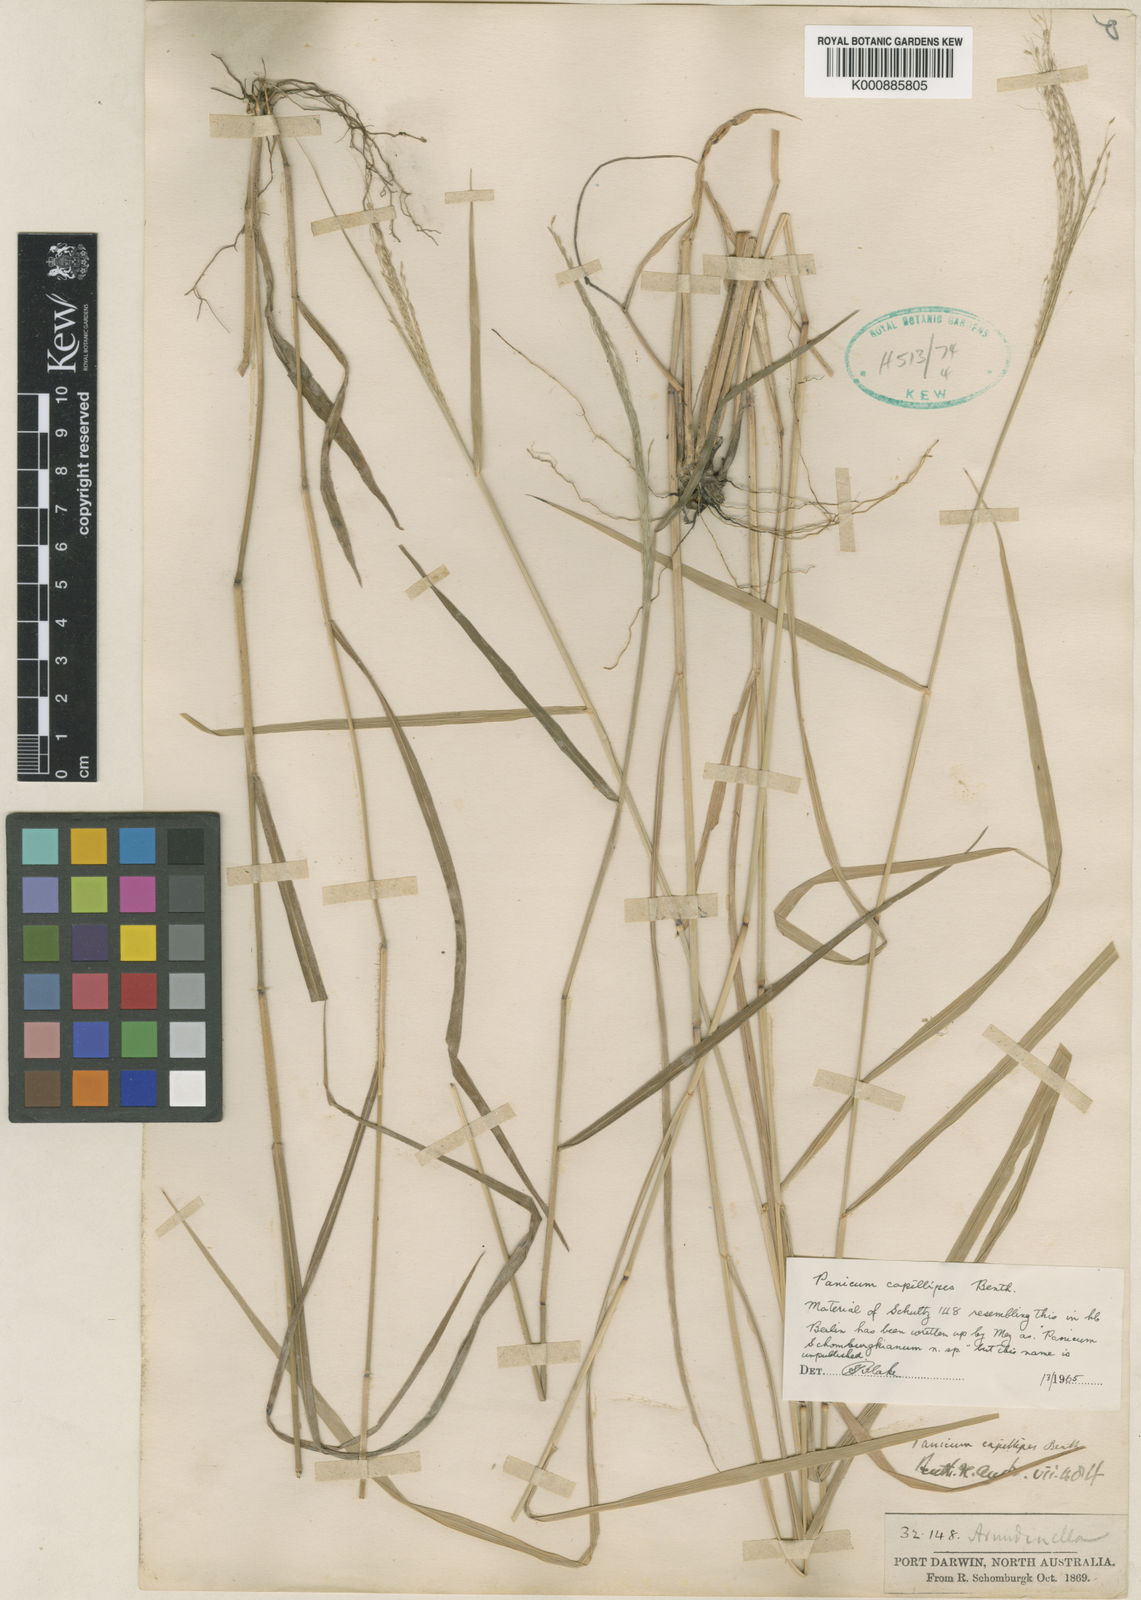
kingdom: Plantae
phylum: Tracheophyta
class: Liliopsida
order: Poales
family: Poaceae
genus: Whiteochloa
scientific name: Whiteochloa capillipes
